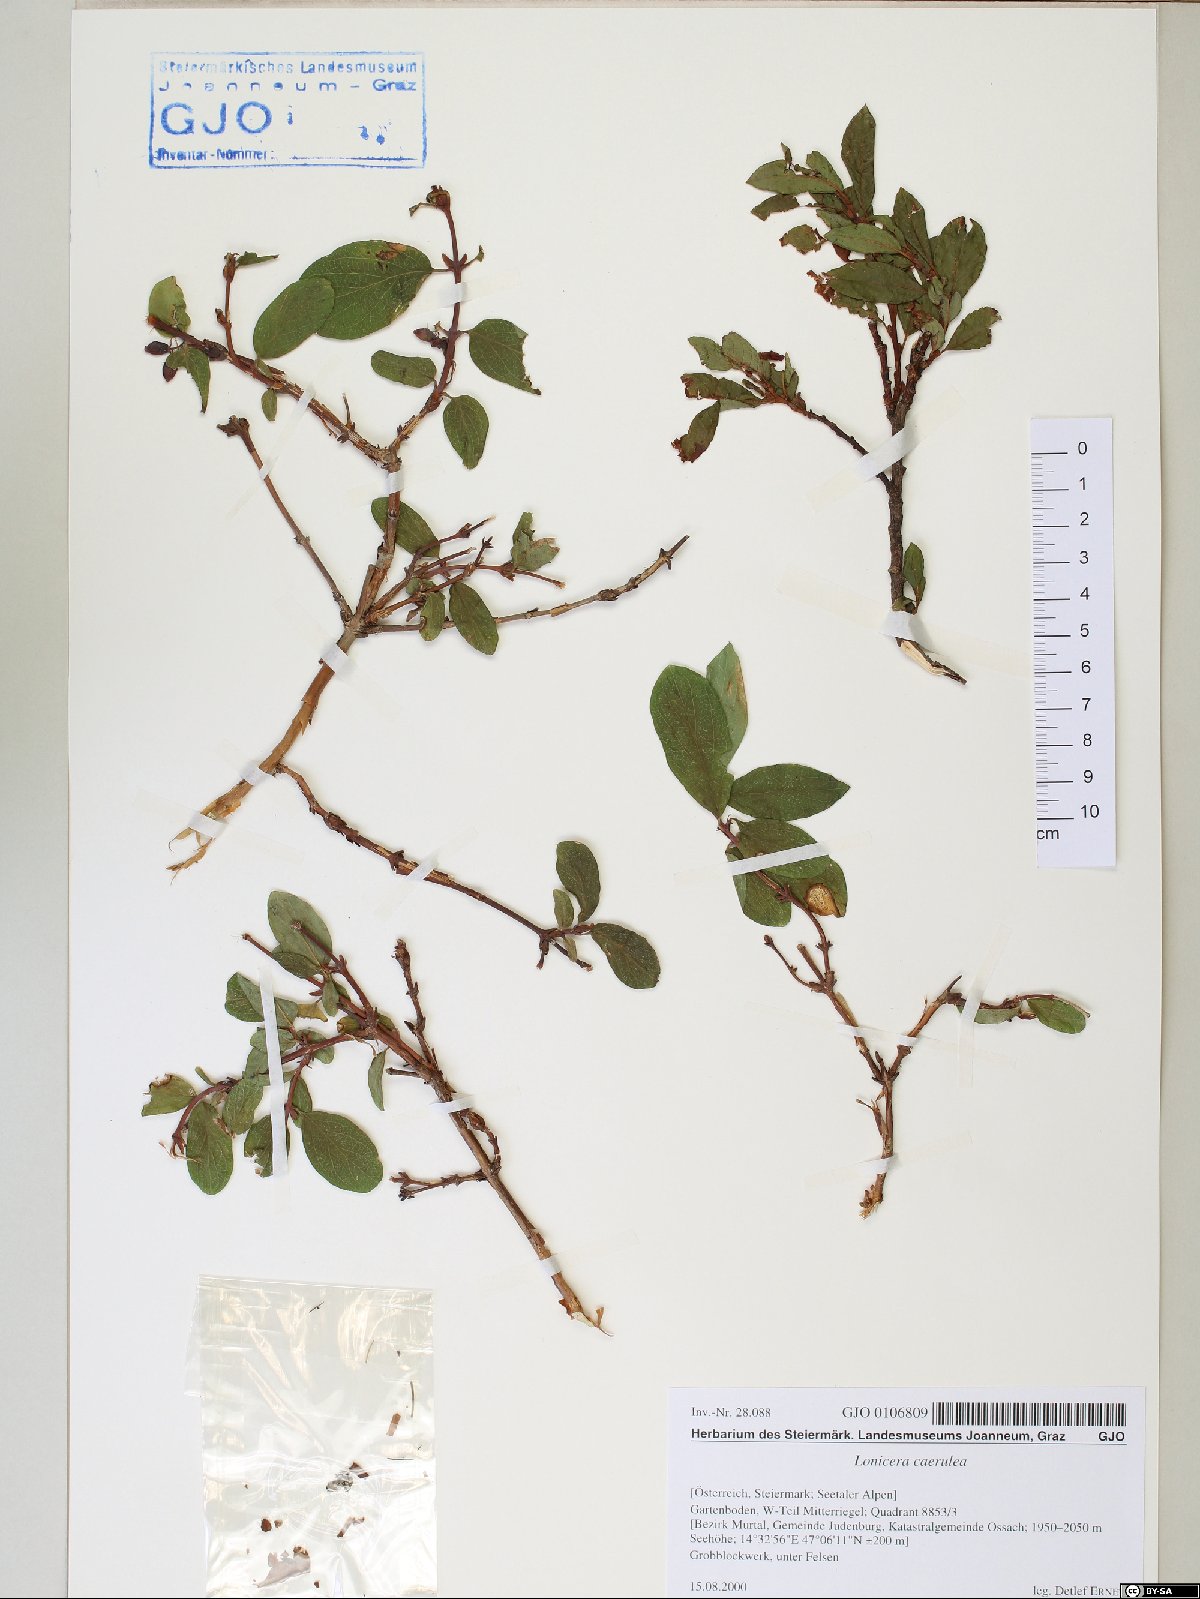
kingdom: Plantae
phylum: Tracheophyta
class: Magnoliopsida
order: Dipsacales
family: Caprifoliaceae
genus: Lonicera
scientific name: Lonicera caerulea
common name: Blue honeysuckle
